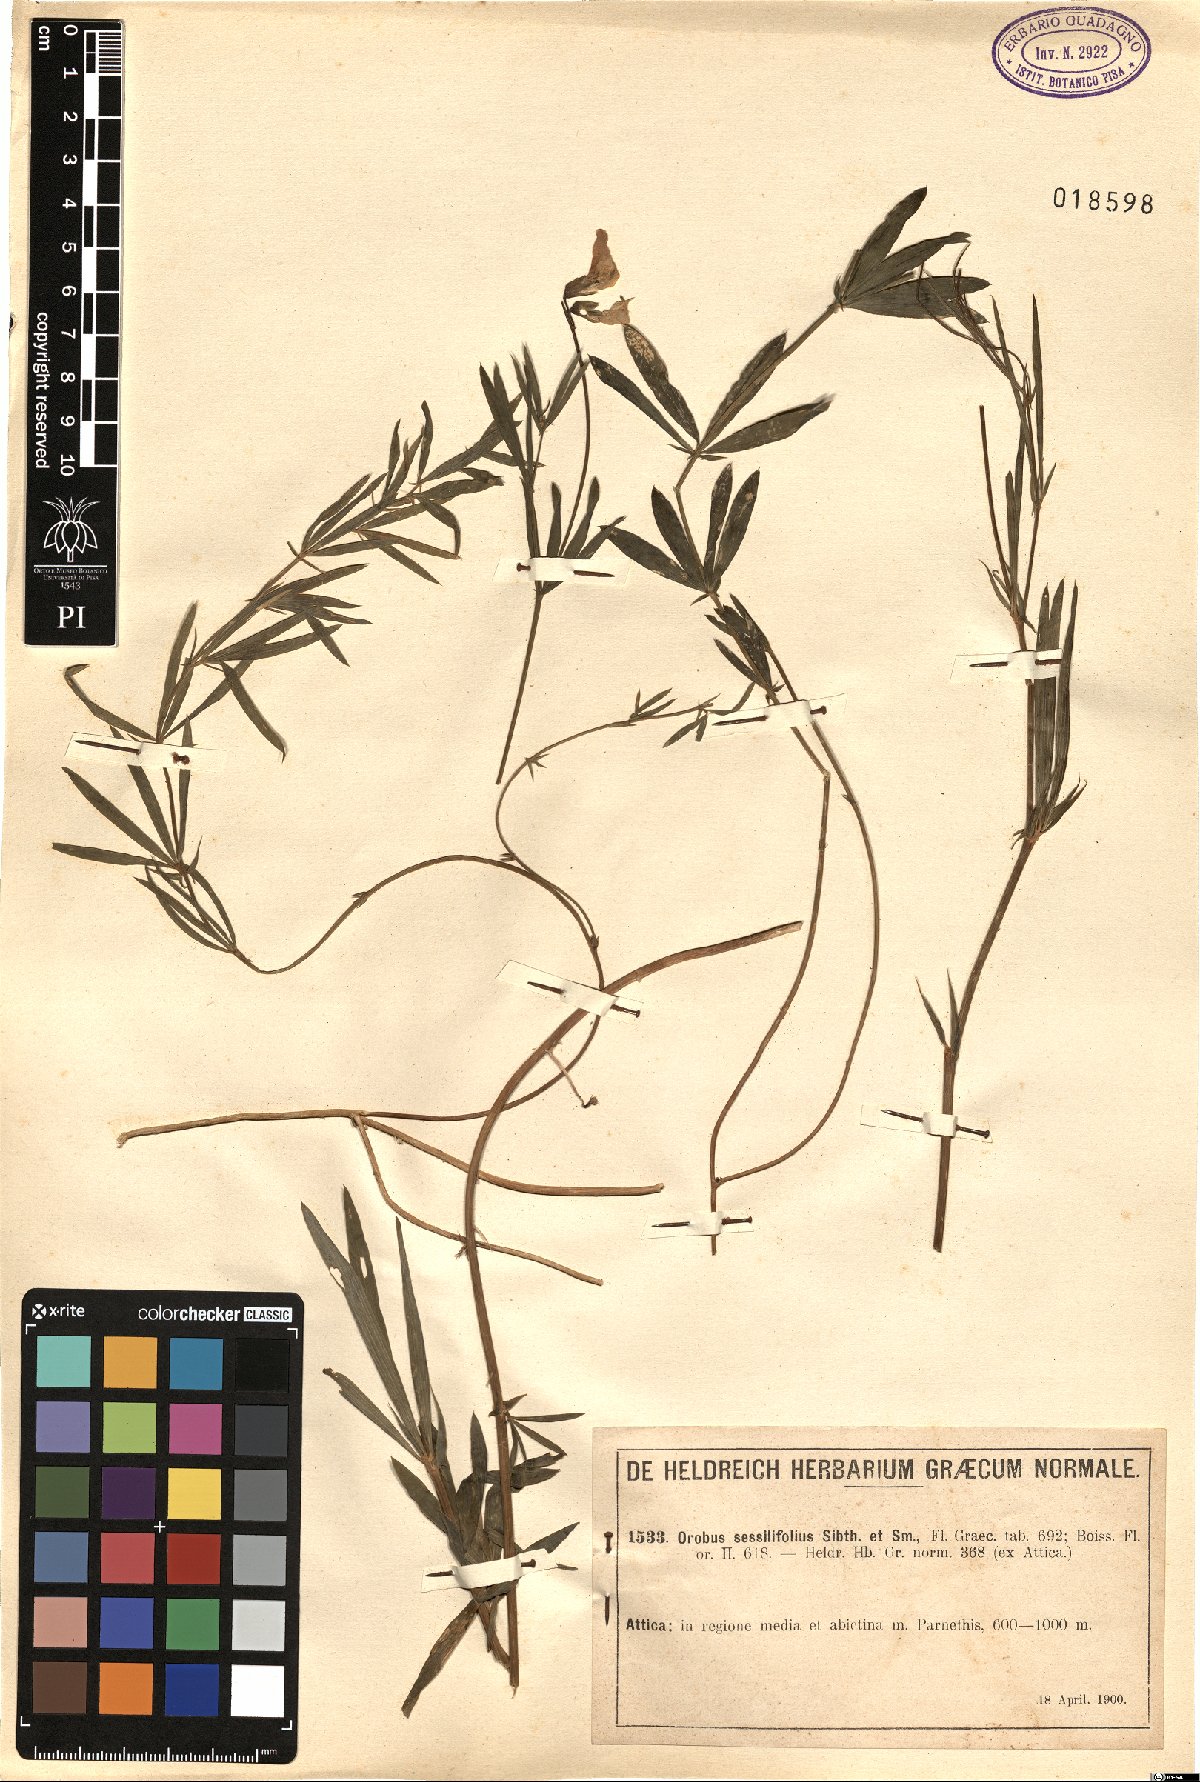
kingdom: Plantae
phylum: Tracheophyta
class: Magnoliopsida
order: Fabales
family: Fabaceae
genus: Lathyrus
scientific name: Lathyrus digitatus
